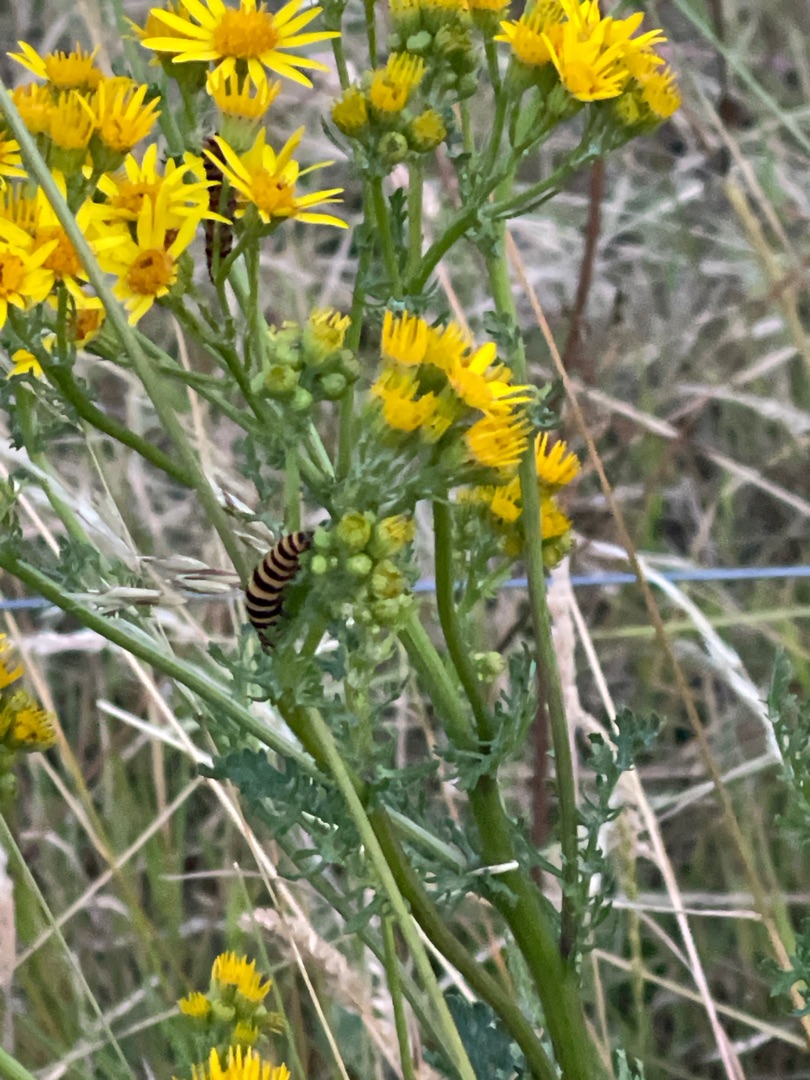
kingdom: Animalia
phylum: Arthropoda
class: Insecta
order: Lepidoptera
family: Erebidae
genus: Tyria
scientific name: Tyria jacobaeae
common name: Blodplet
